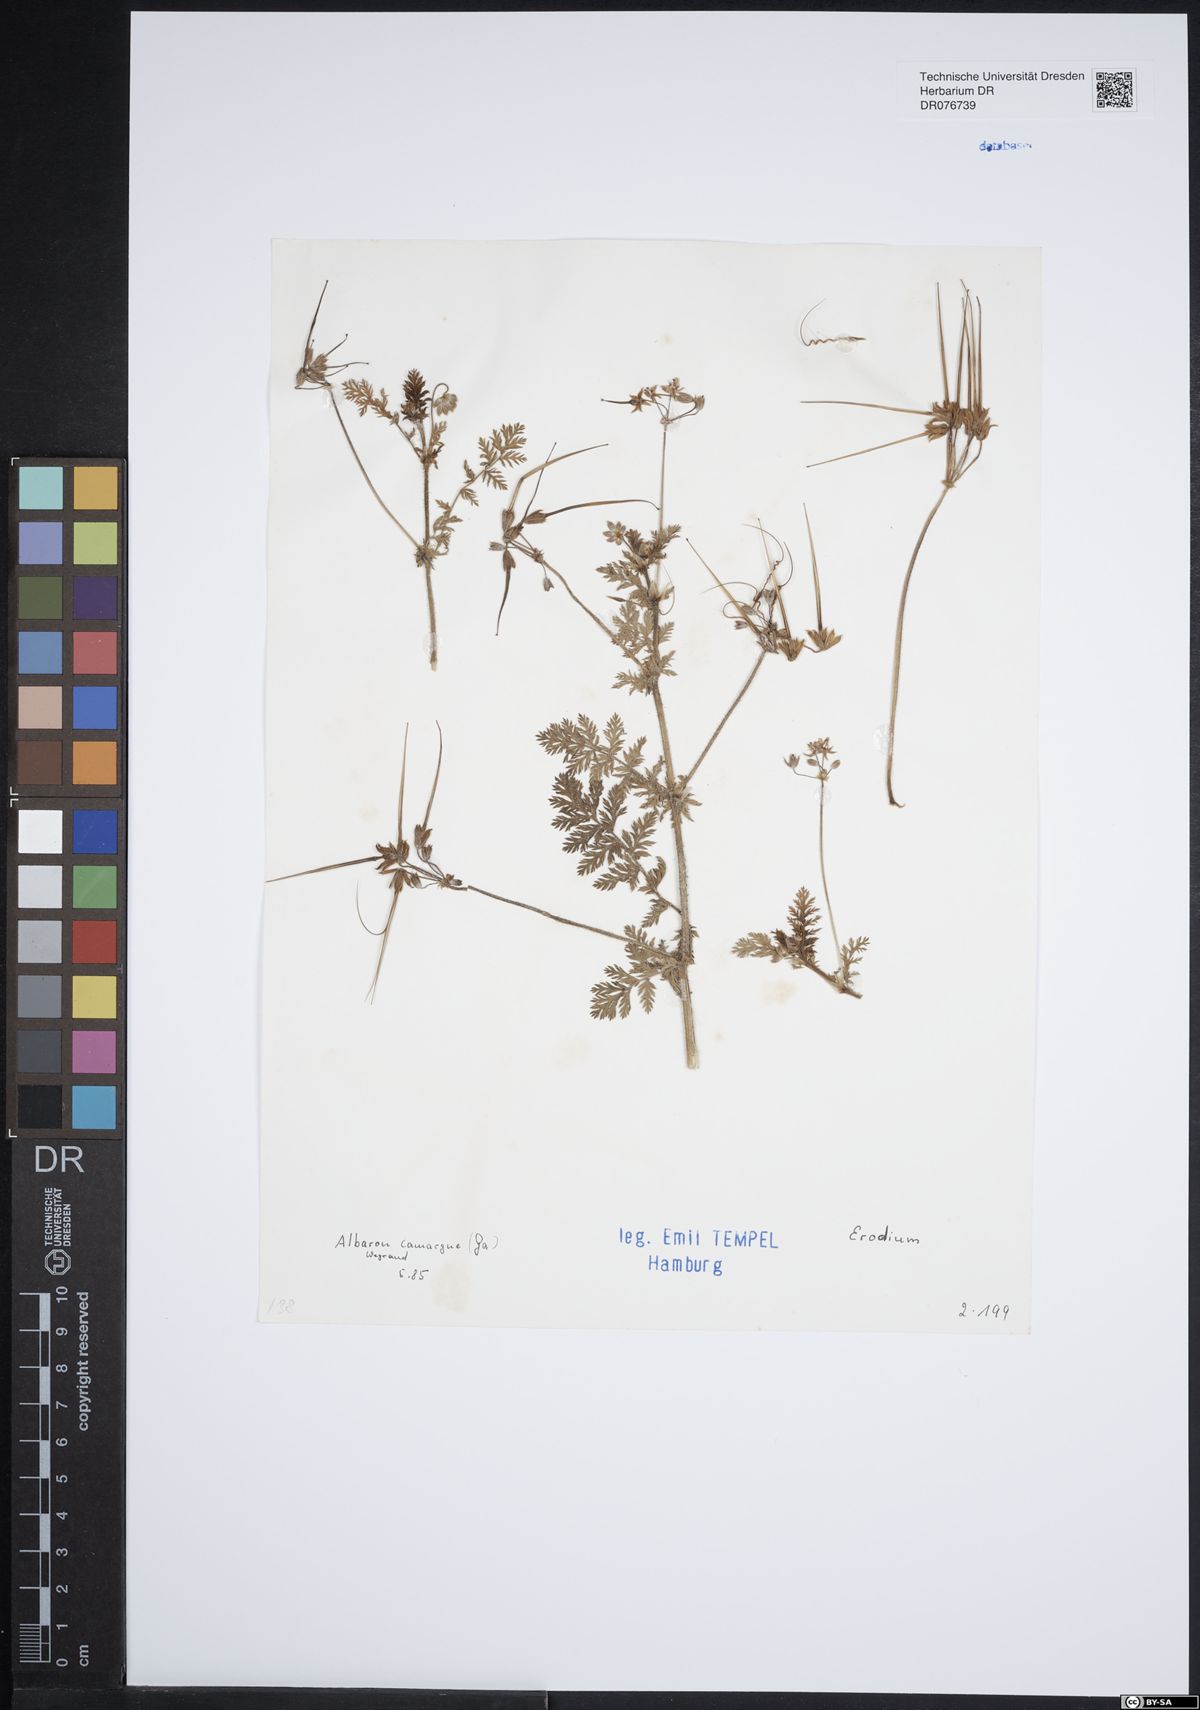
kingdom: Plantae
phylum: Tracheophyta
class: Magnoliopsida
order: Geraniales
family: Geraniaceae
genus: Erodium
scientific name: Erodium
